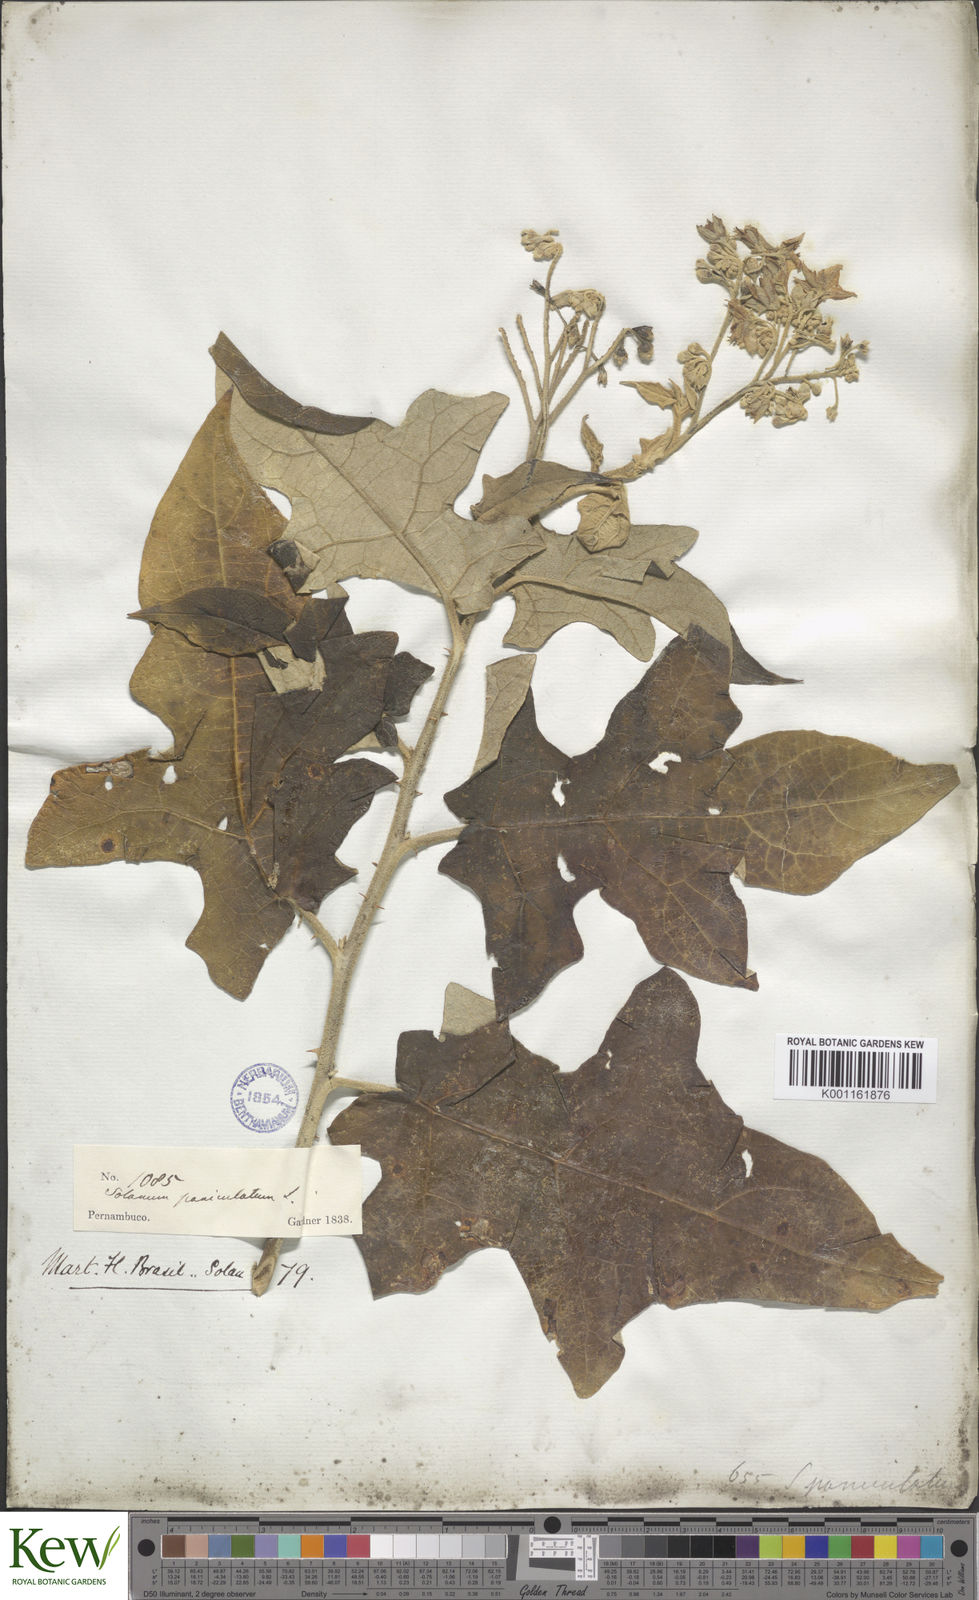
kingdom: Plantae
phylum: Tracheophyta
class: Magnoliopsida
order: Solanales
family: Solanaceae
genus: Solanum
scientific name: Solanum paniculatum
